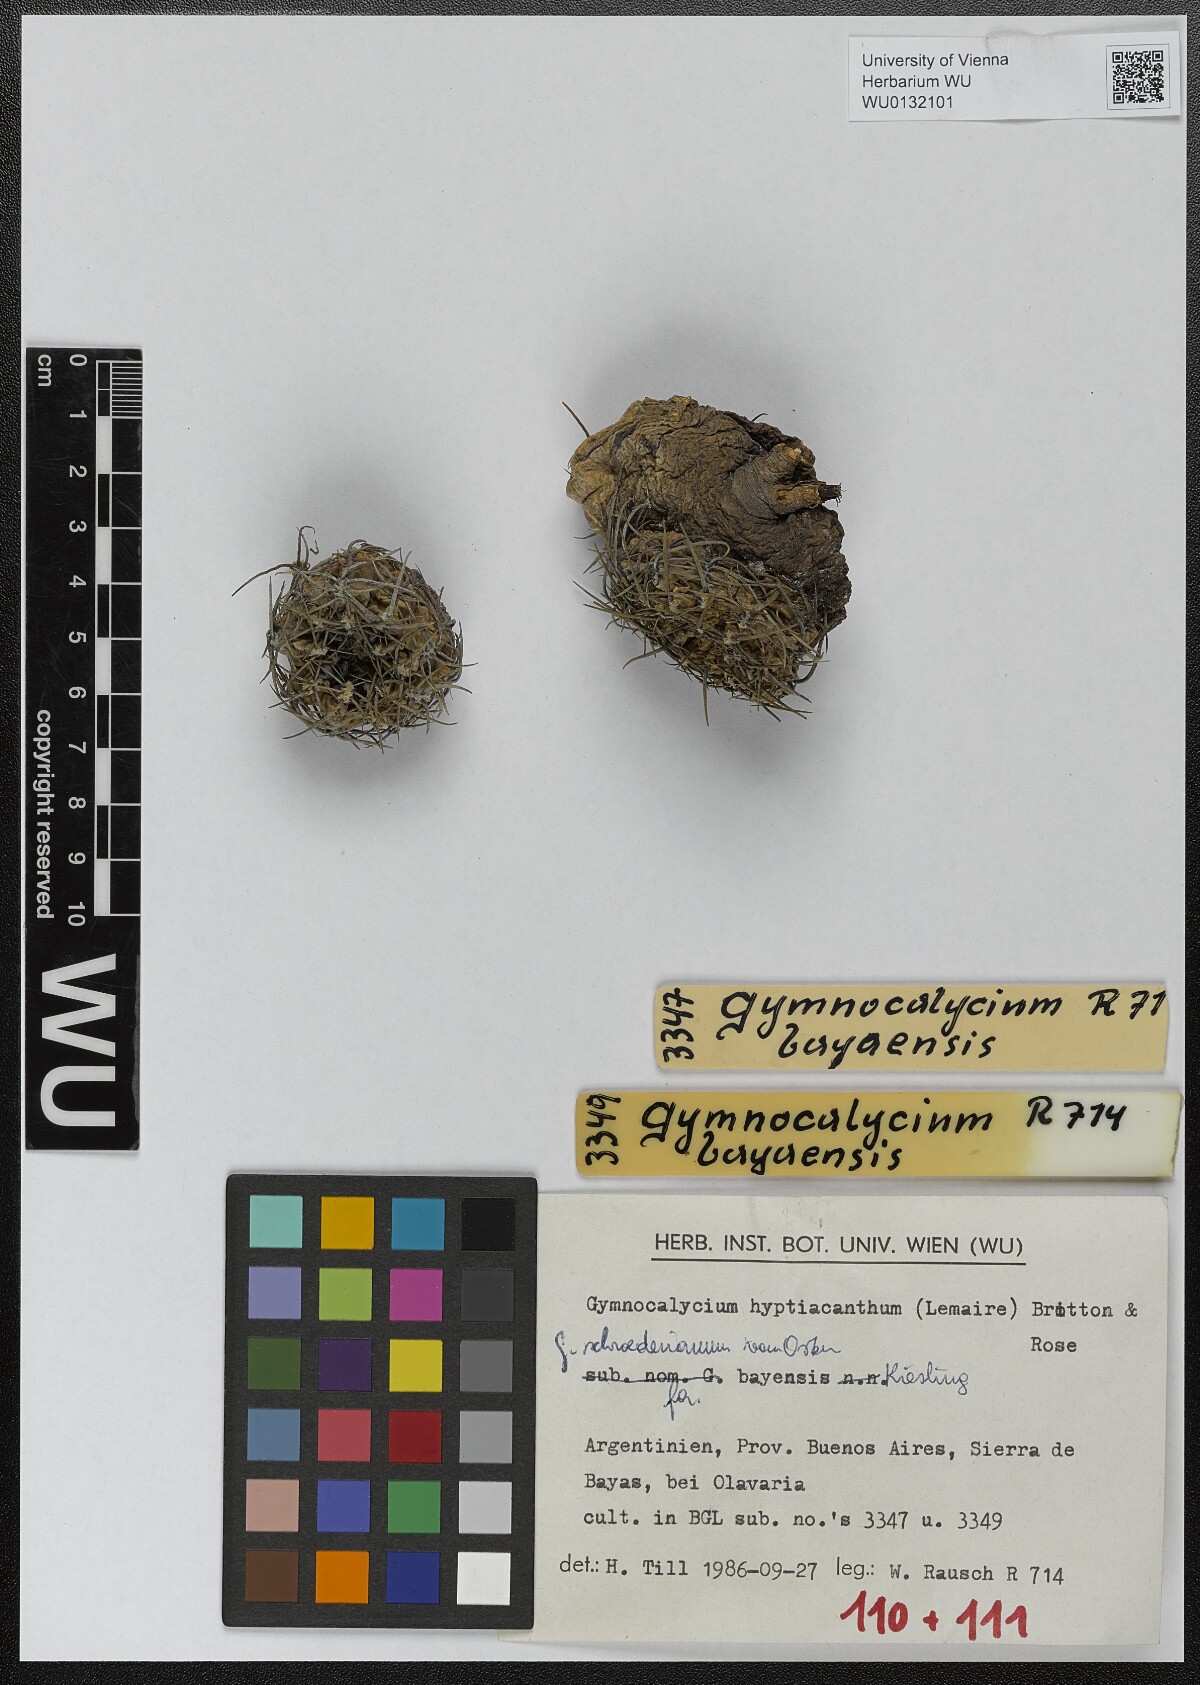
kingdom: Plantae
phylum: Tracheophyta
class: Magnoliopsida
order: Caryophyllales
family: Cactaceae
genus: Gymnocalycium
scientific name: Gymnocalycium hossei
